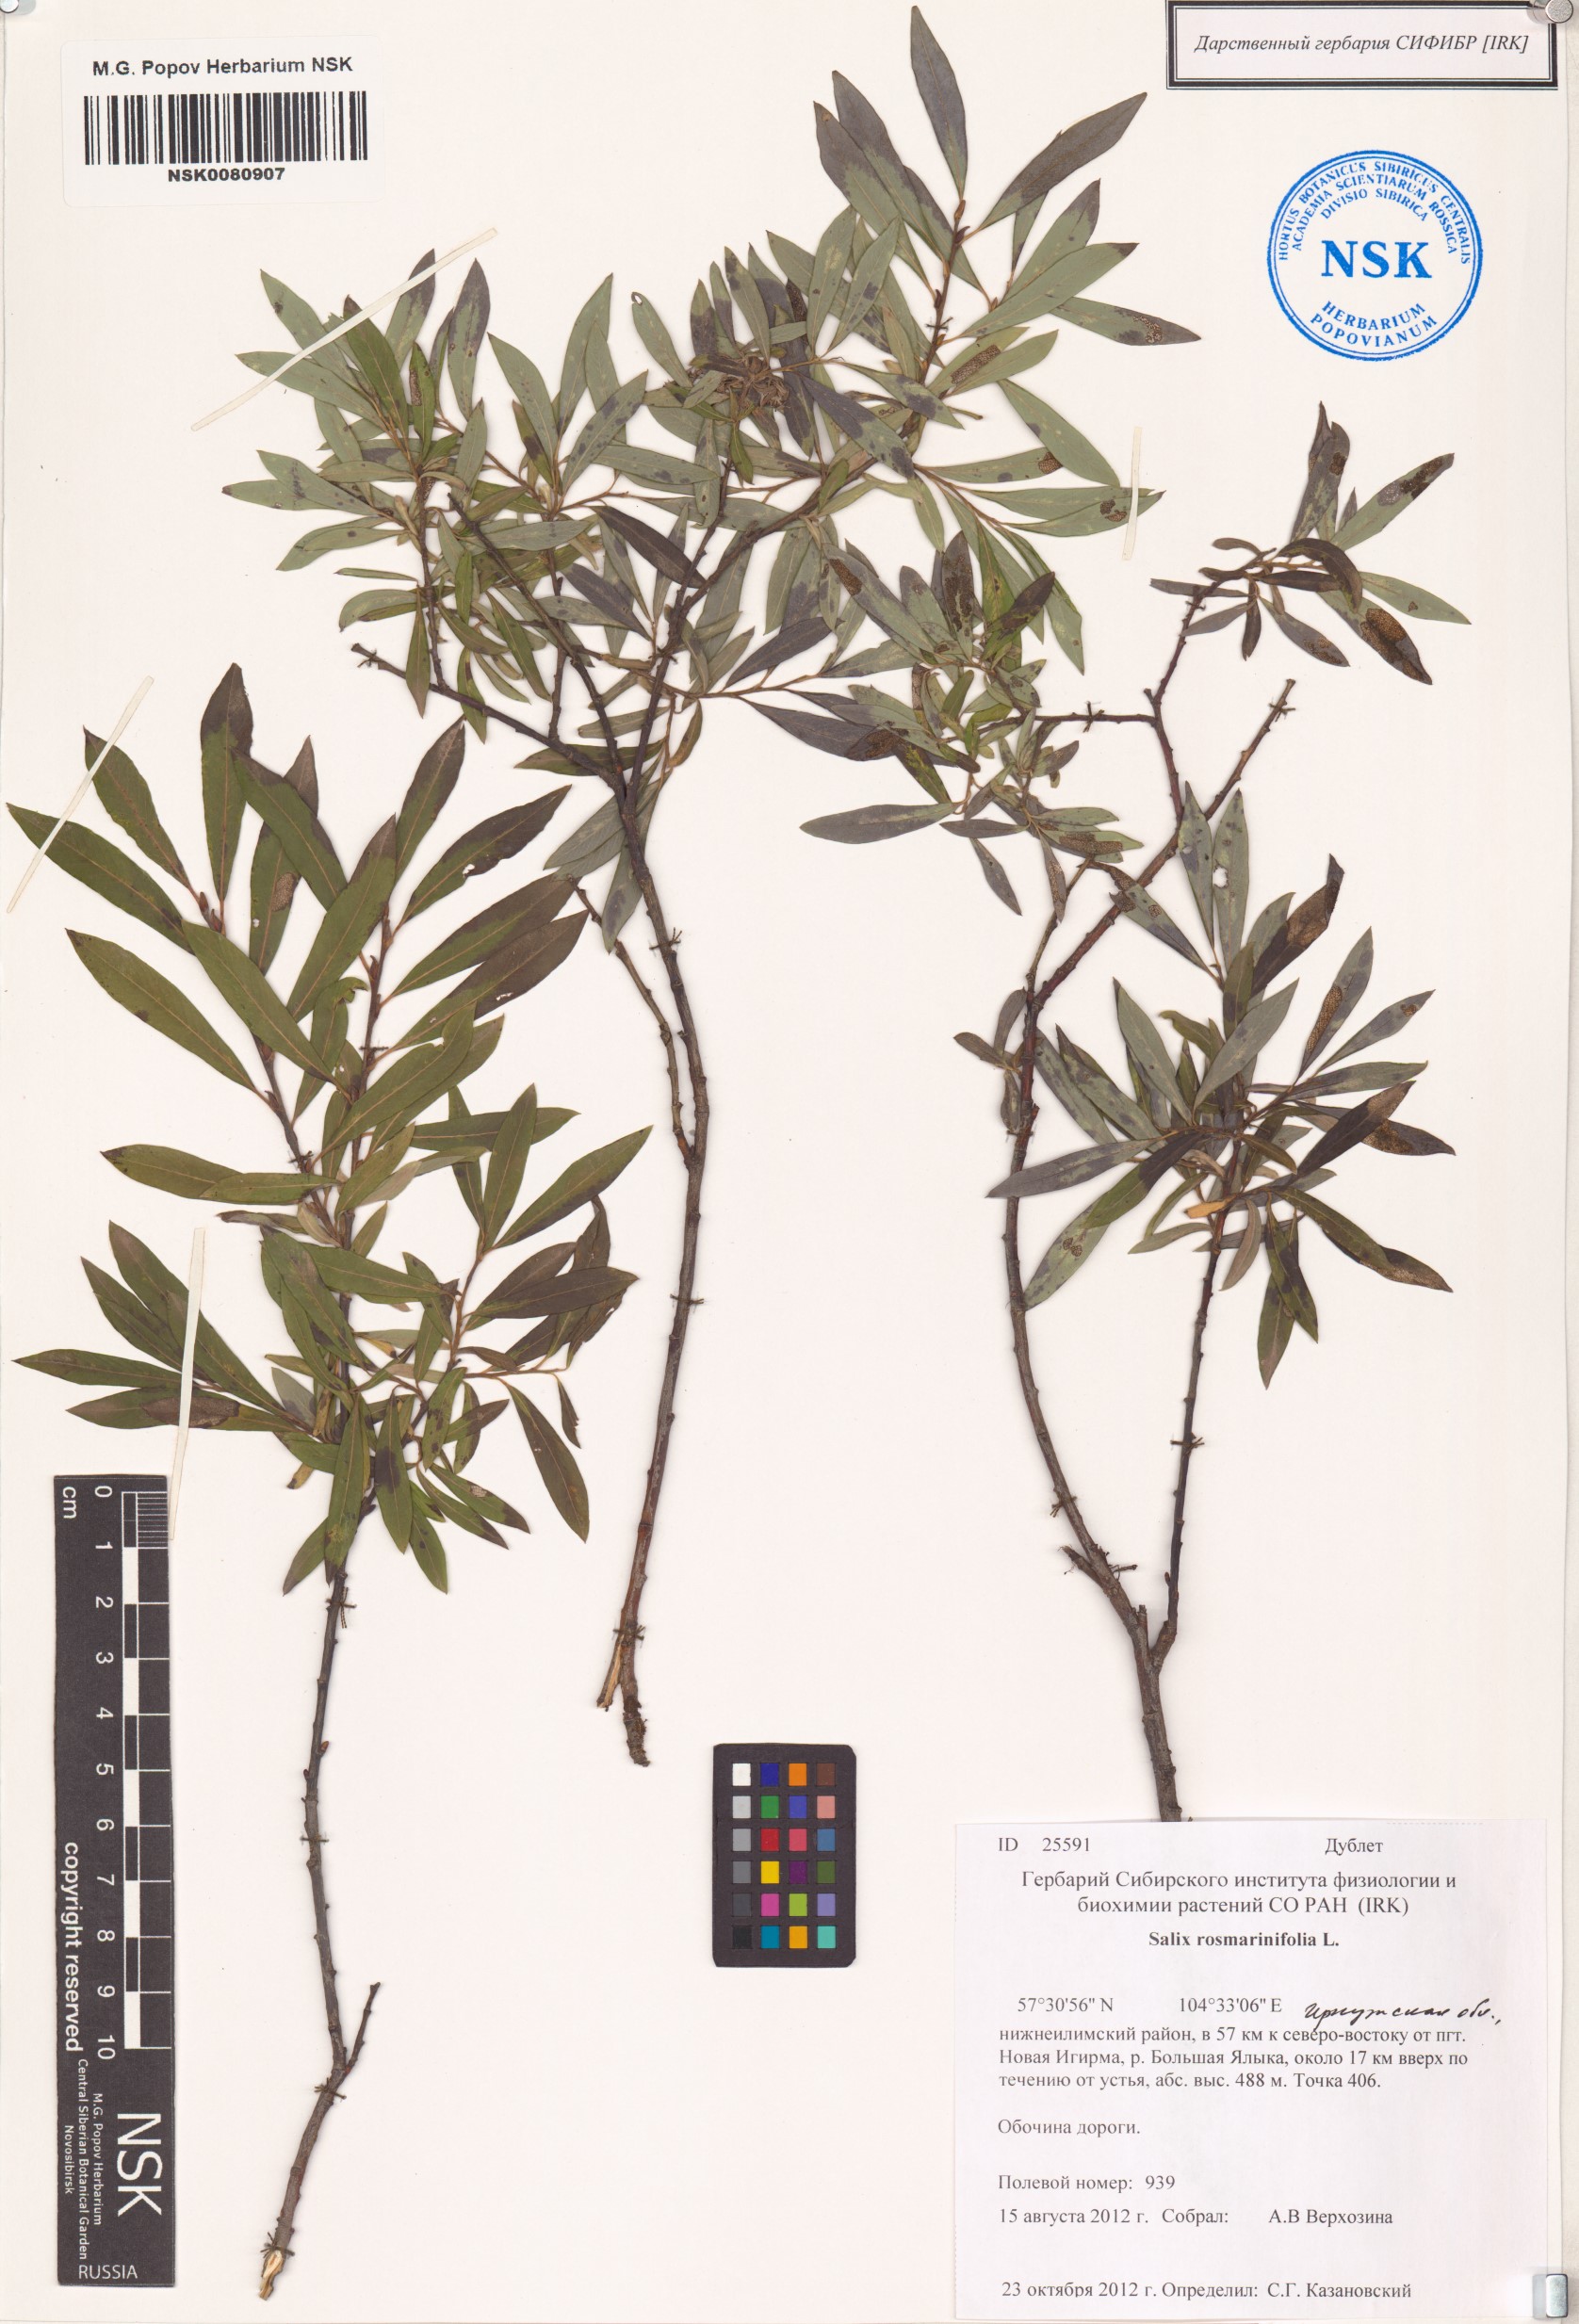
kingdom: Plantae
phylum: Tracheophyta
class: Magnoliopsida
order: Malpighiales
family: Salicaceae
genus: Salix
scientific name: Salix rosmarinifolia
